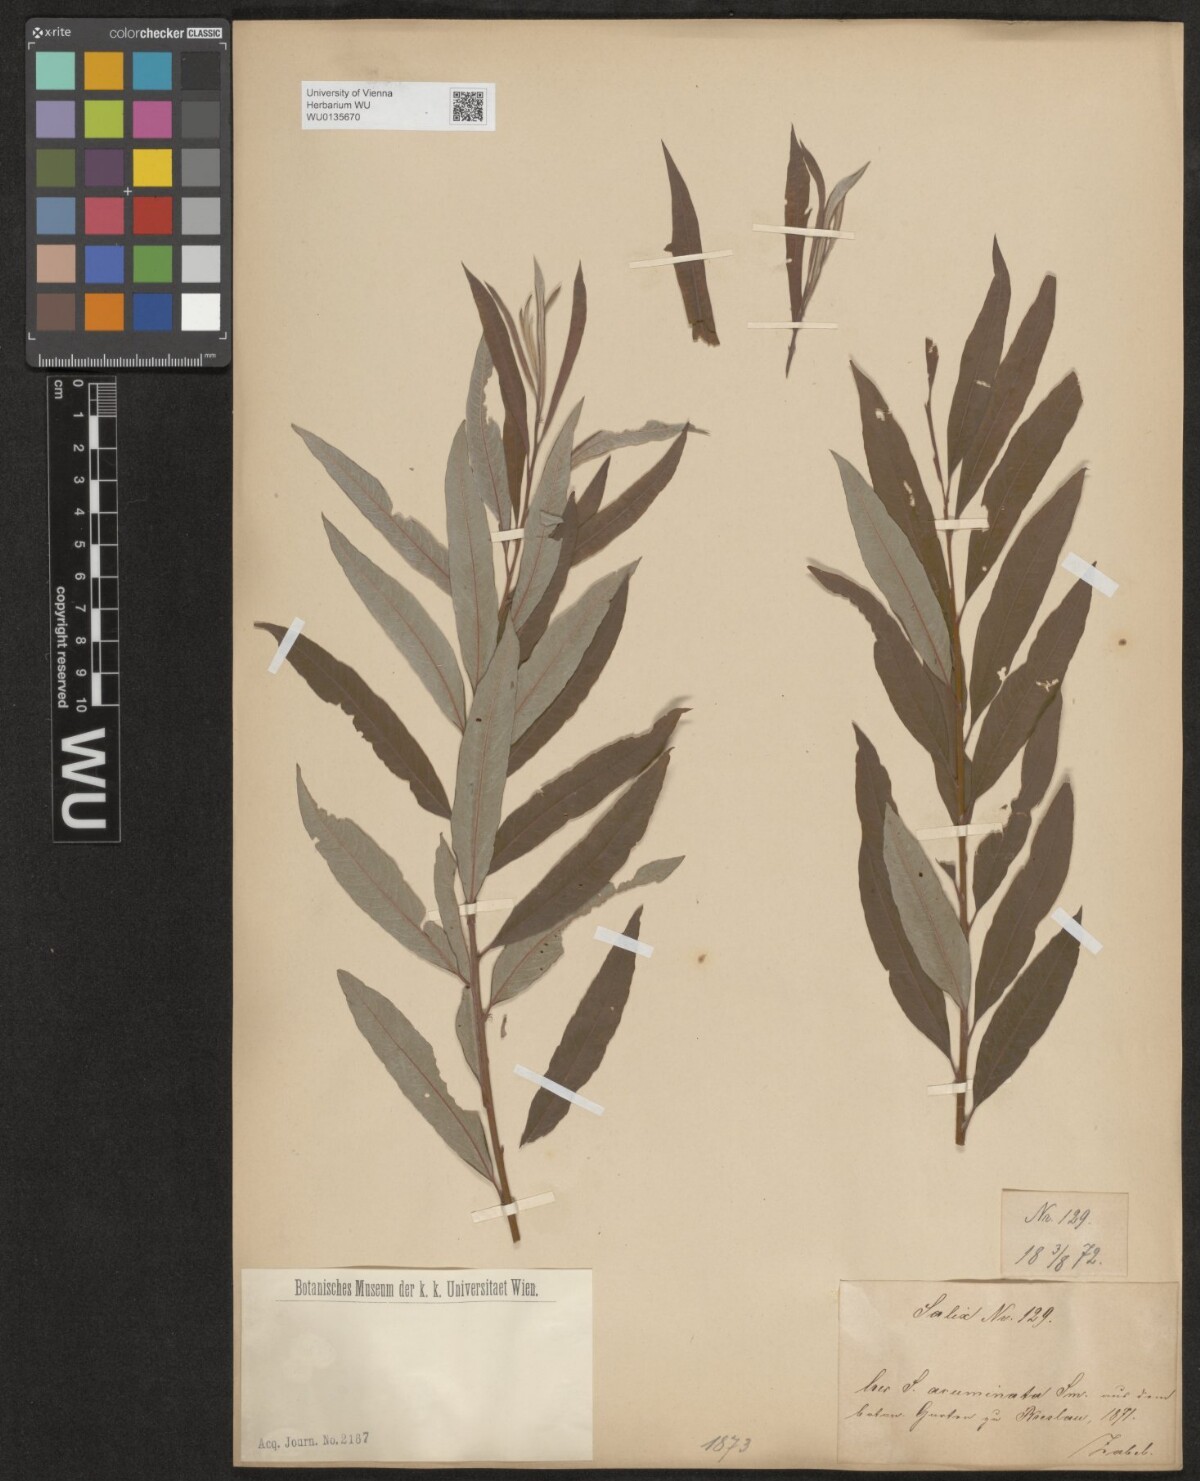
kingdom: Plantae
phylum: Tracheophyta
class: Magnoliopsida
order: Malpighiales
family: Salicaceae
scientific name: Salicaceae
